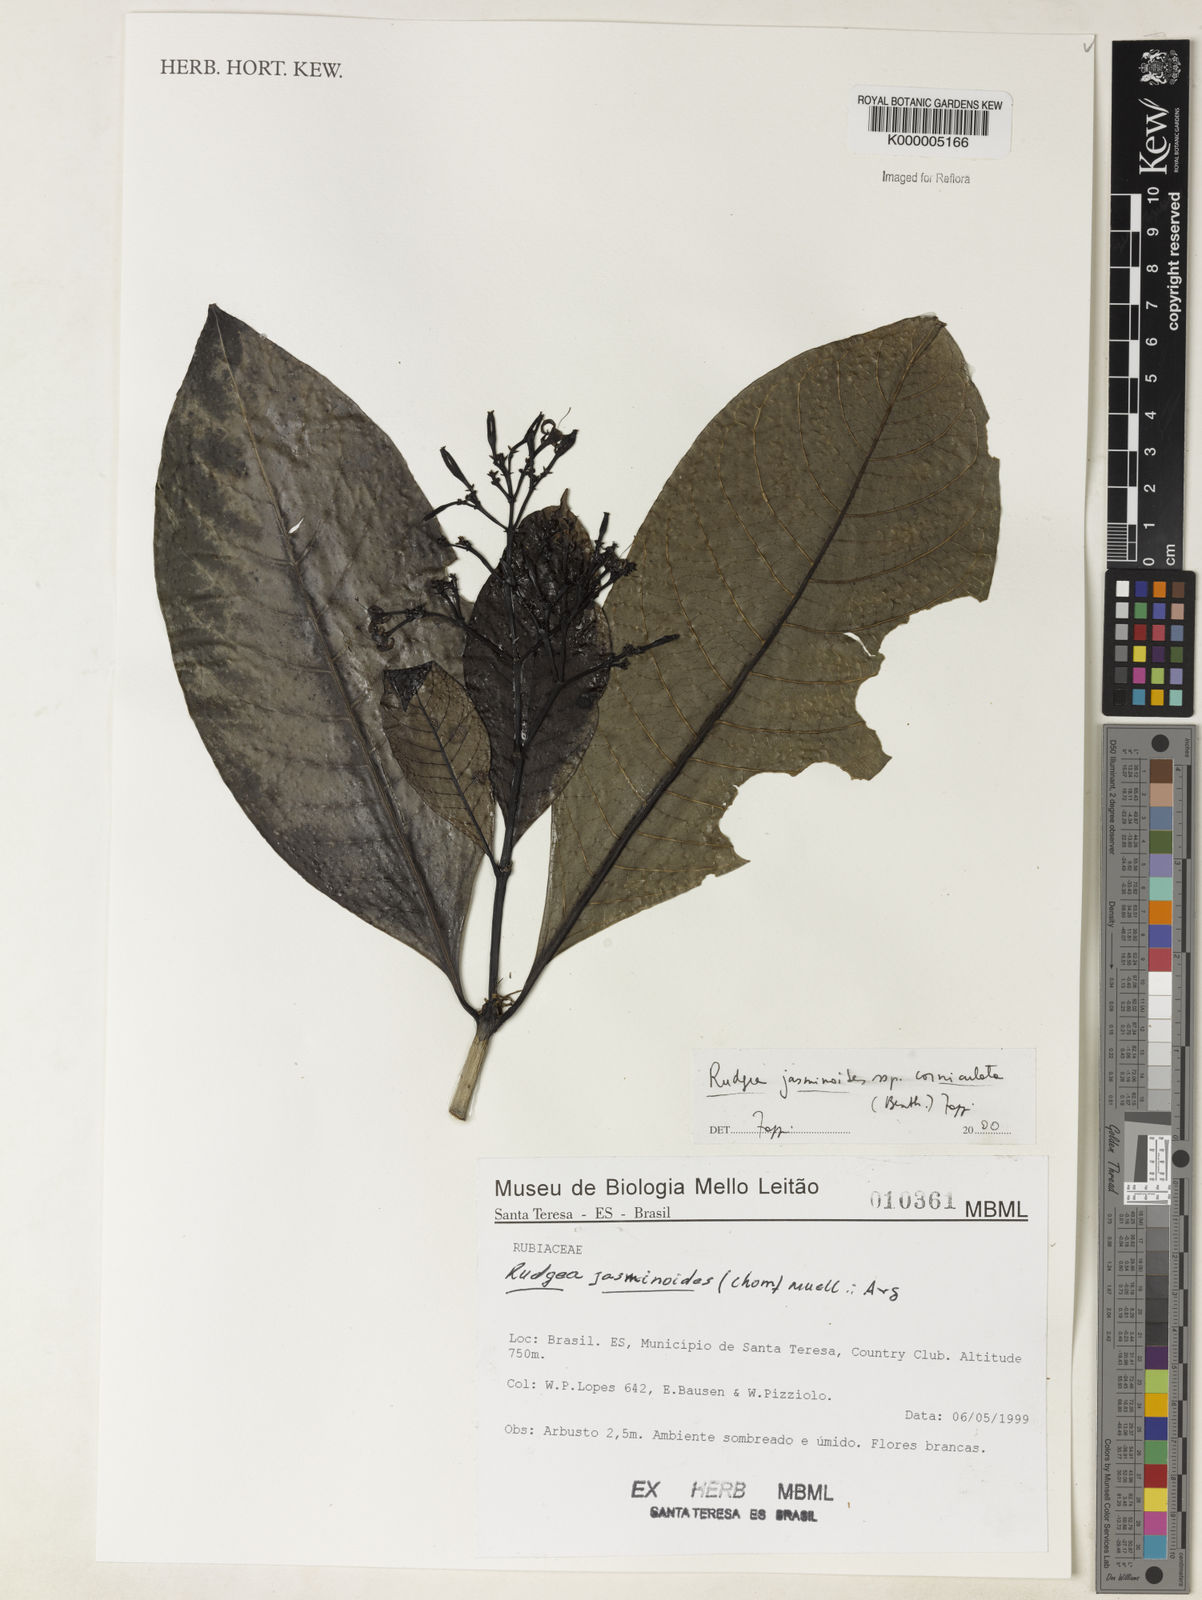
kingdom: Plantae
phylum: Tracheophyta
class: Magnoliopsida
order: Gentianales
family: Rubiaceae
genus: Rudgea
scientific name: Rudgea jasminoides
